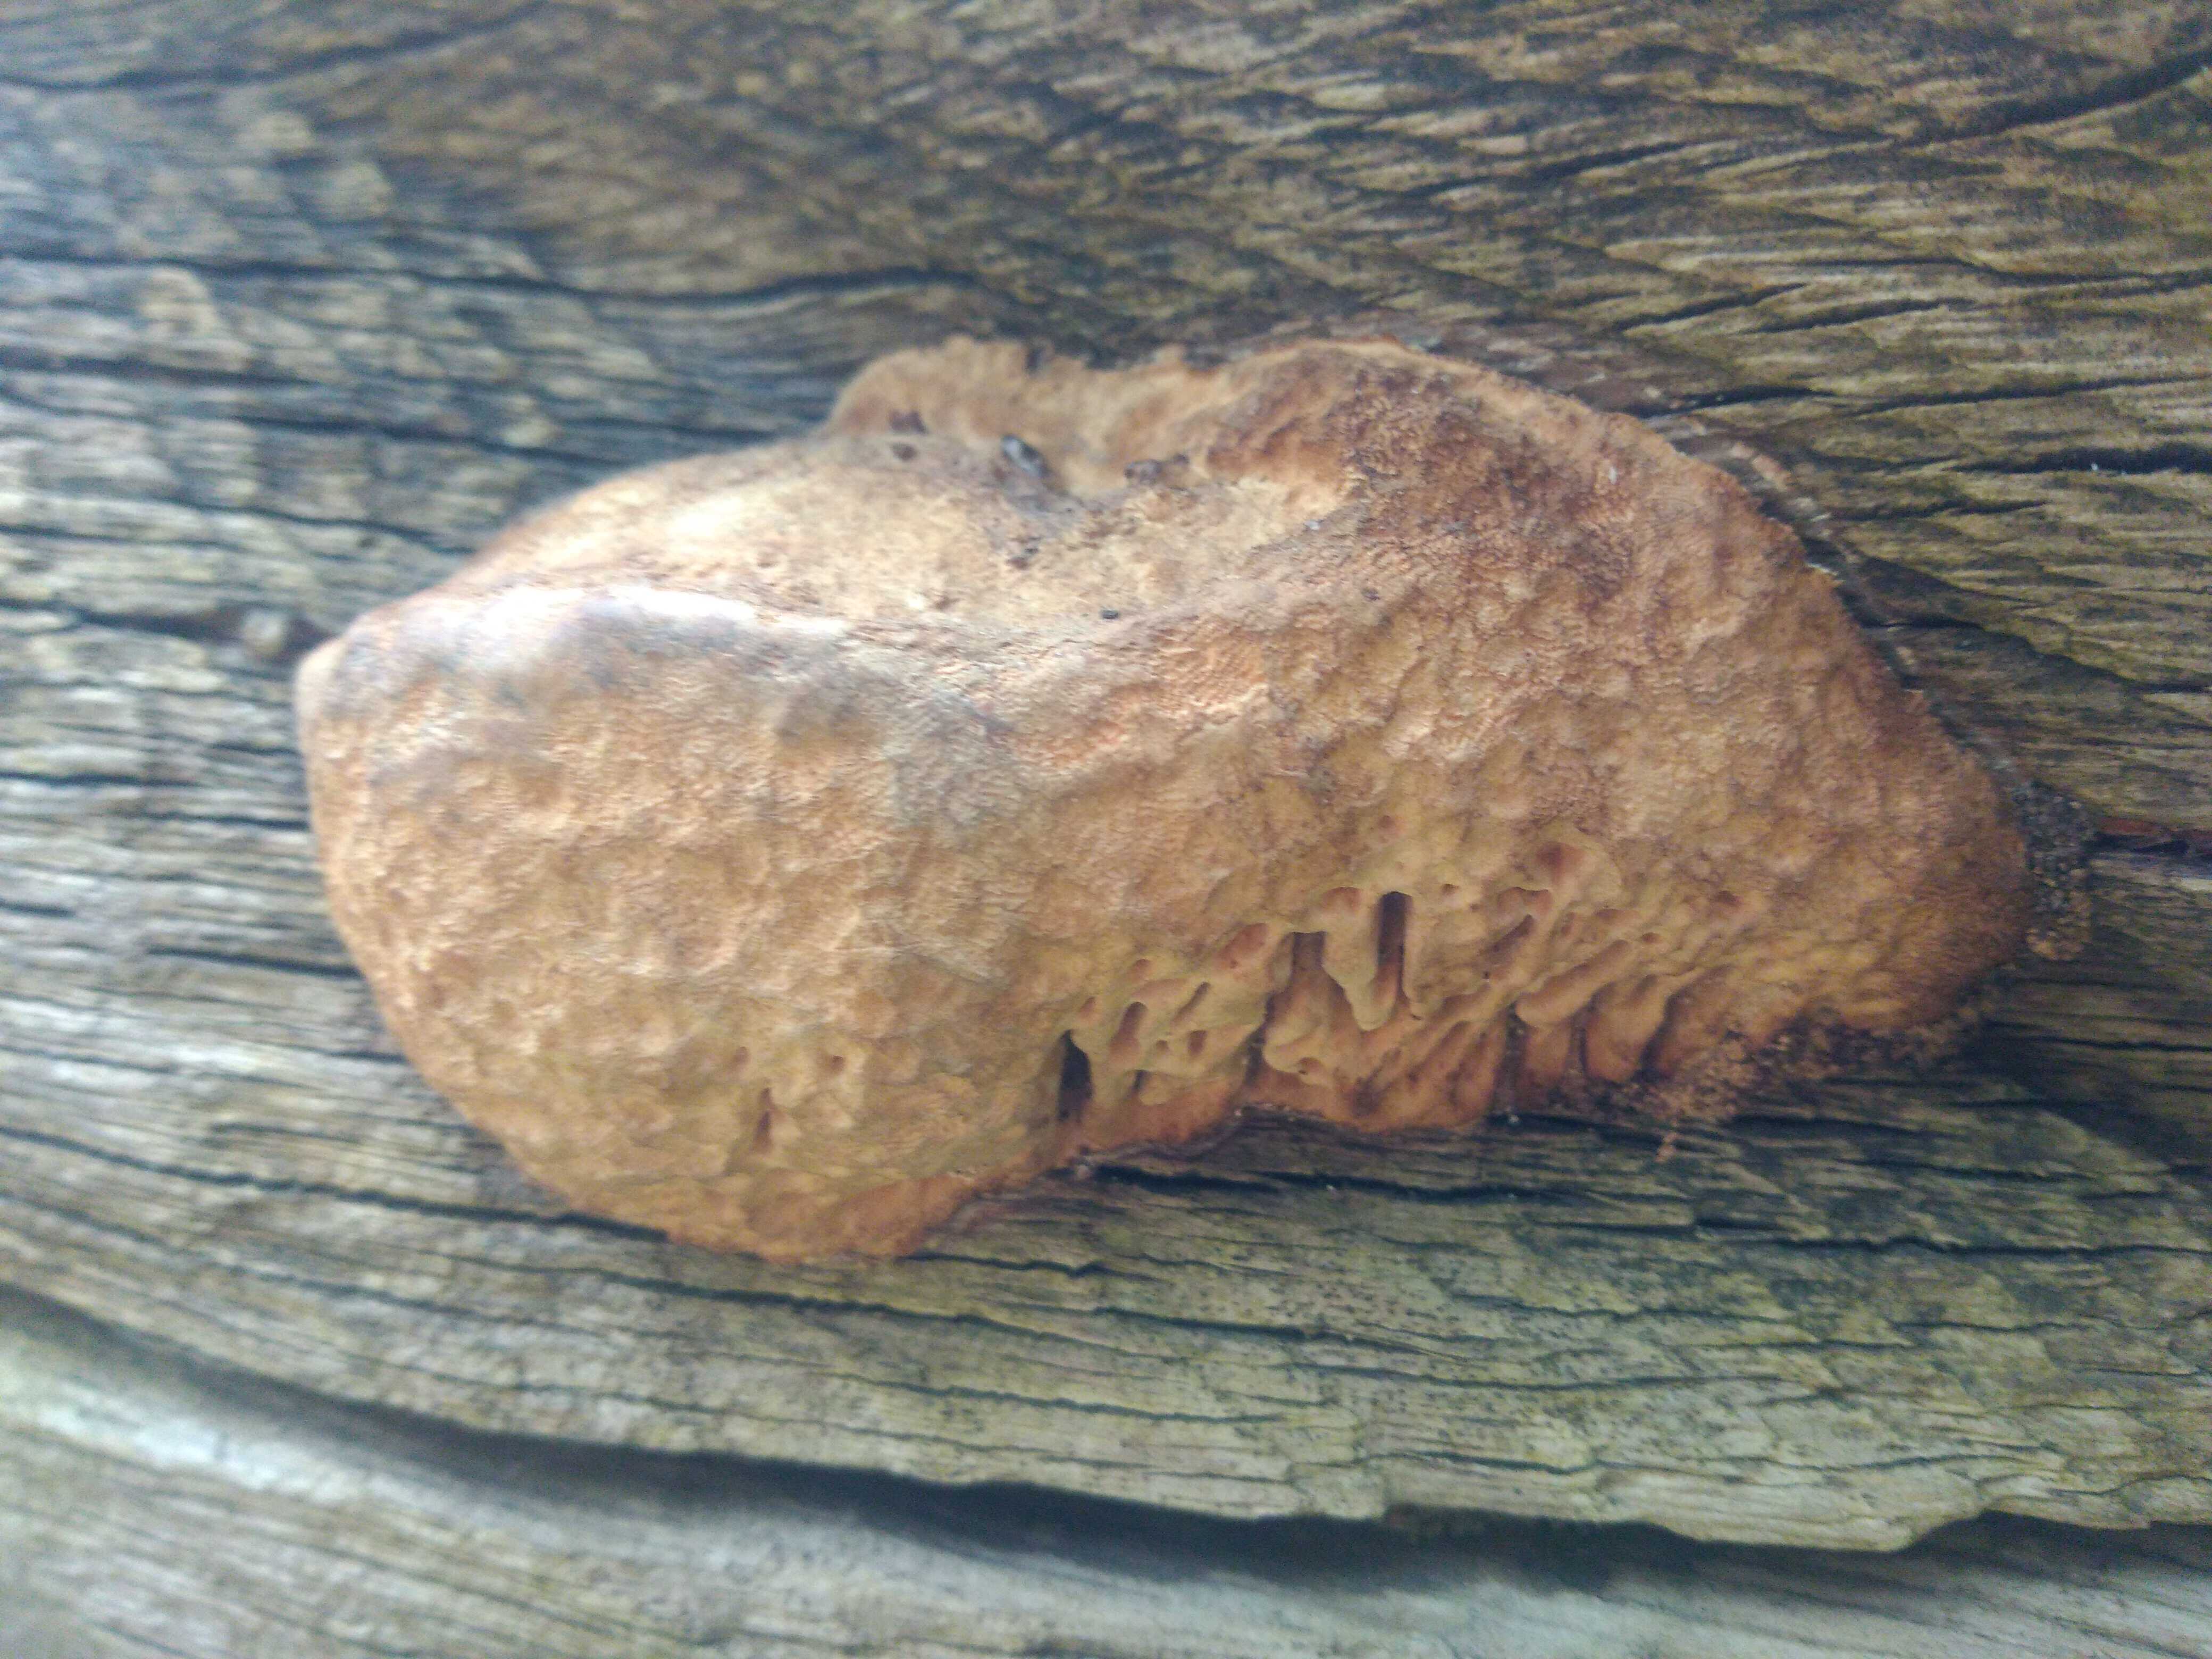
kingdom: Fungi
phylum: Basidiomycota
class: Agaricomycetes
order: Polyporales
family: Fomitopsidaceae
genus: Daedalea
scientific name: Daedalea quercina
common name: ege-labyrintsvamp
